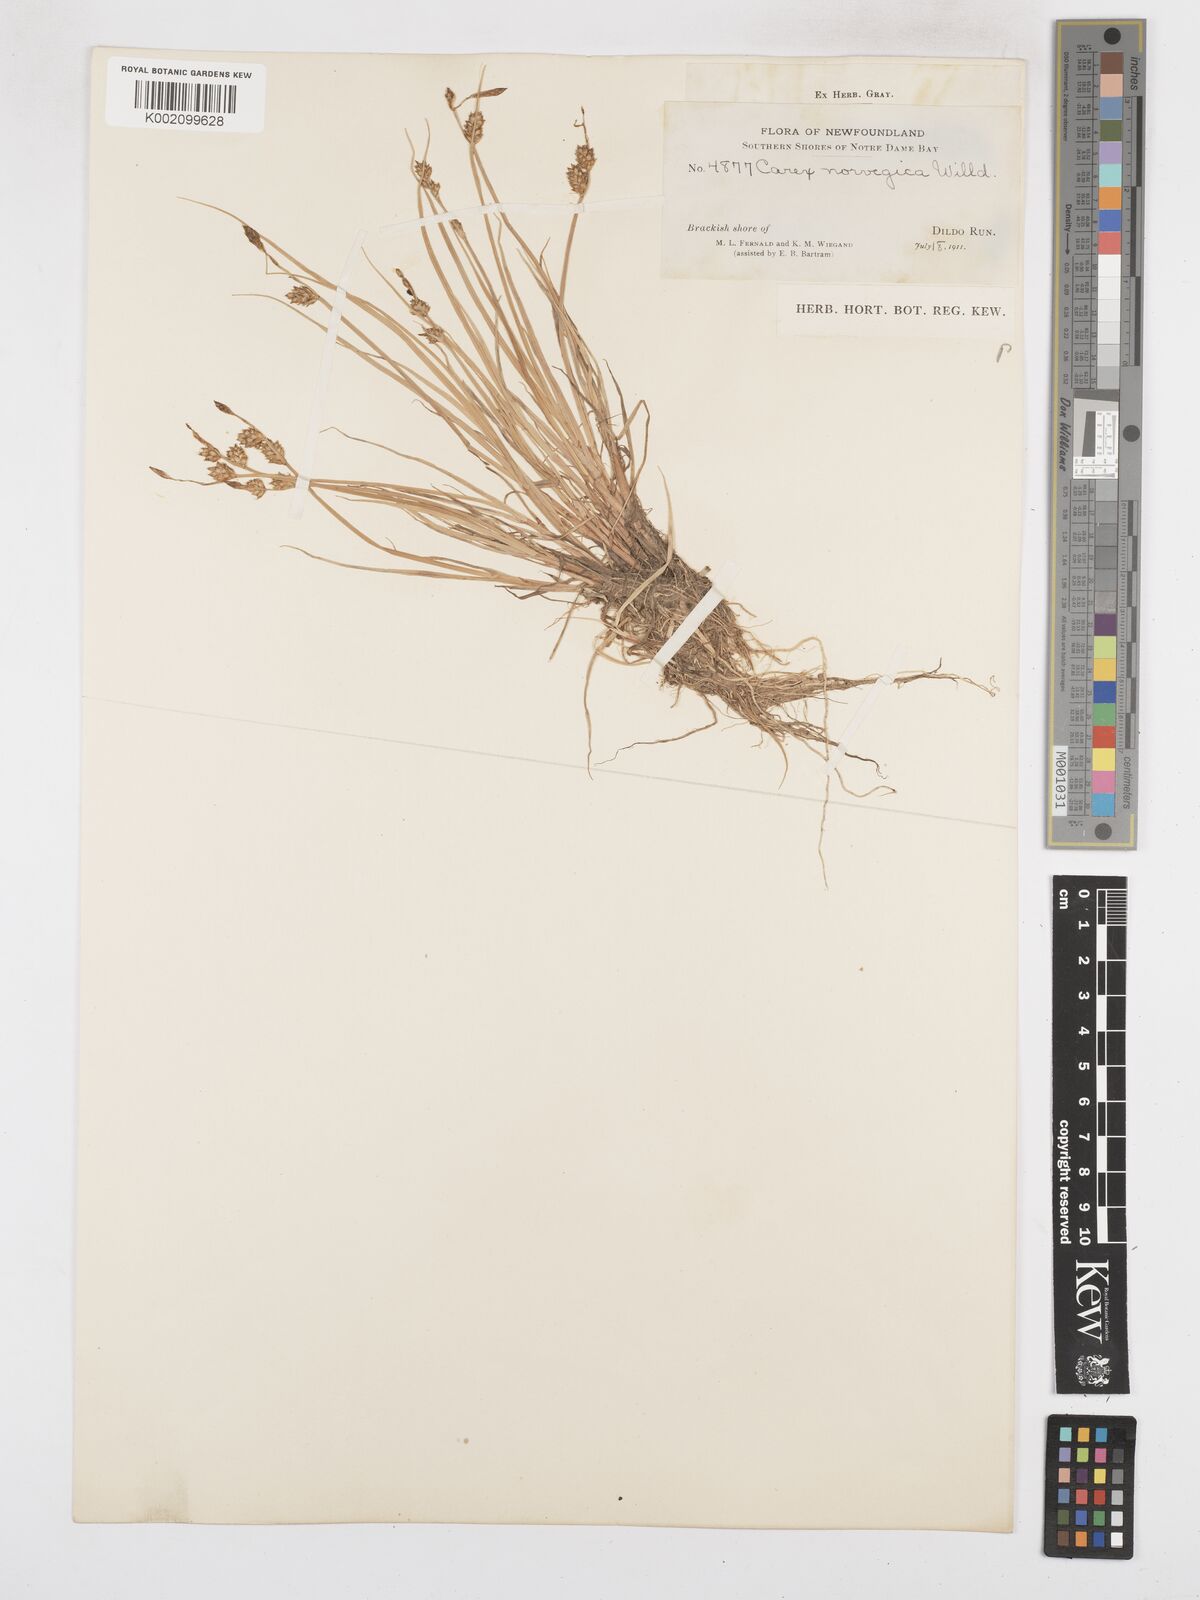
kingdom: Plantae
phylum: Tracheophyta
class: Liliopsida
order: Poales
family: Cyperaceae
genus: Carex
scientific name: Carex mackenziei
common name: Mackenzie's sedge
